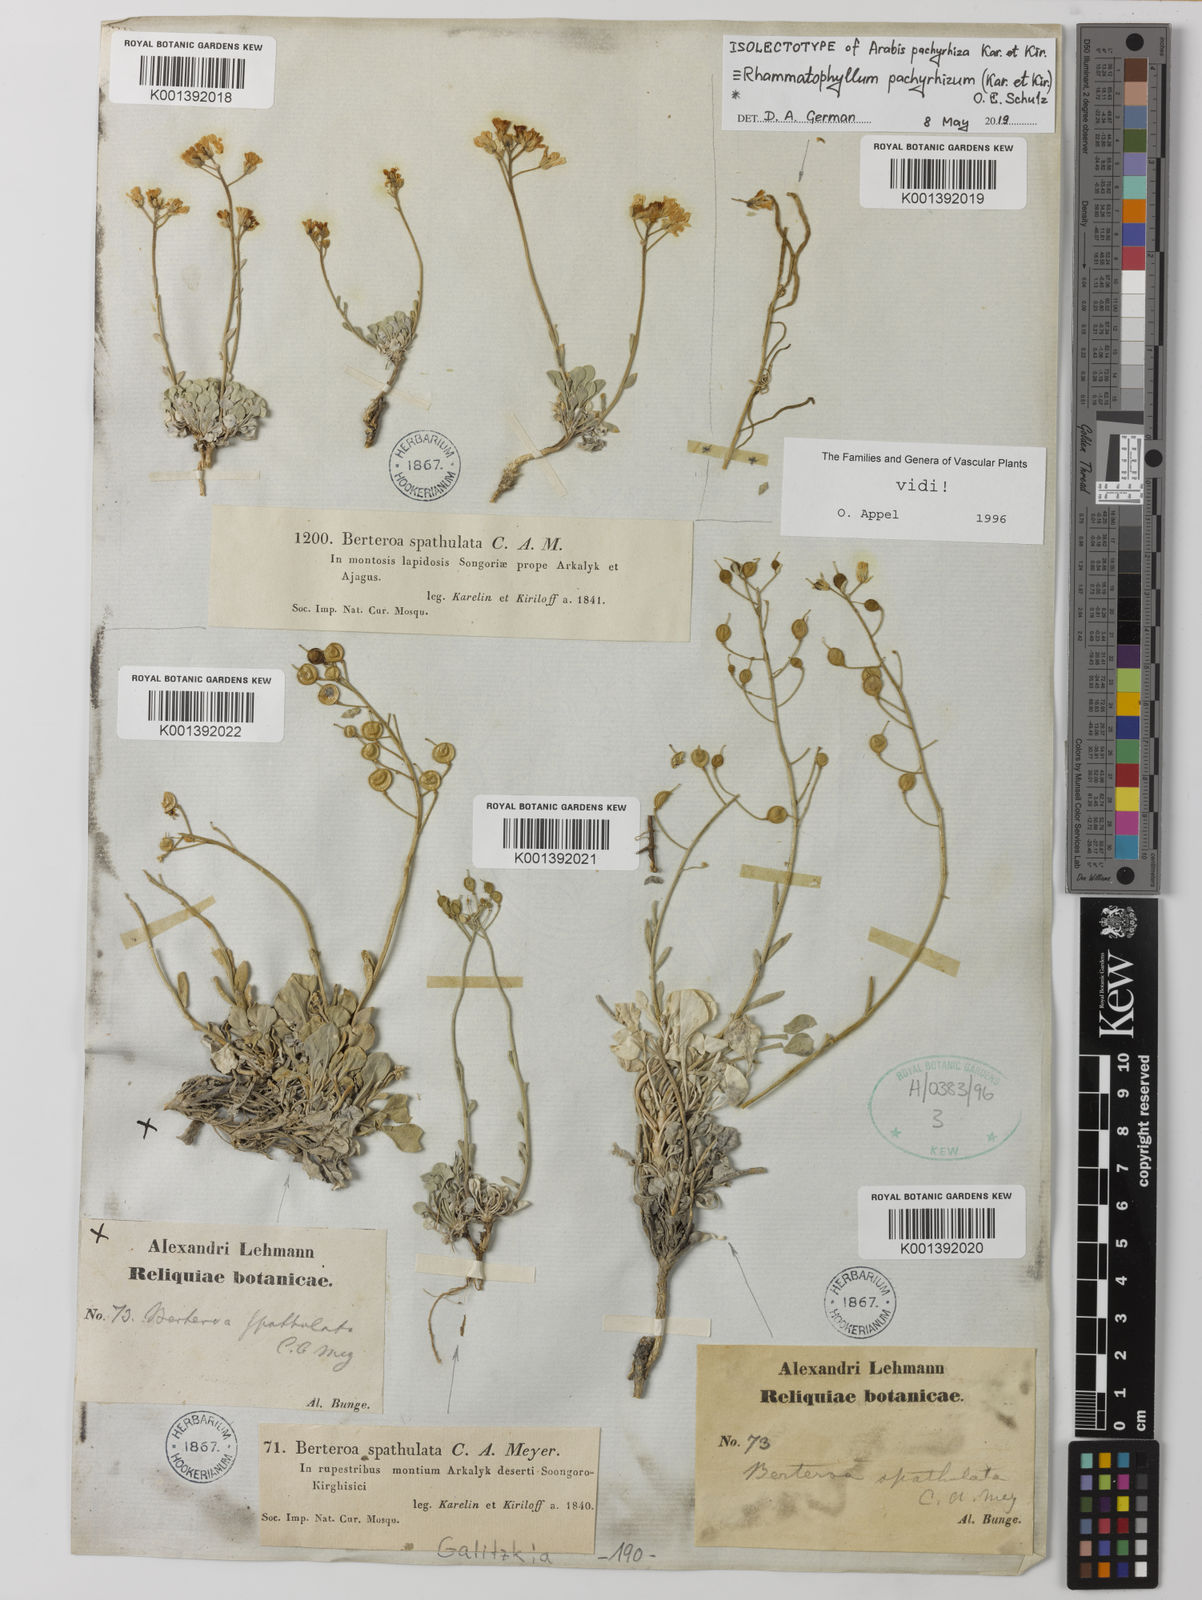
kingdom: Plantae
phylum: Tracheophyta
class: Magnoliopsida
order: Brassicales
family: Brassicaceae
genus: Galitzkya
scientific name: Galitzkya spathulata
